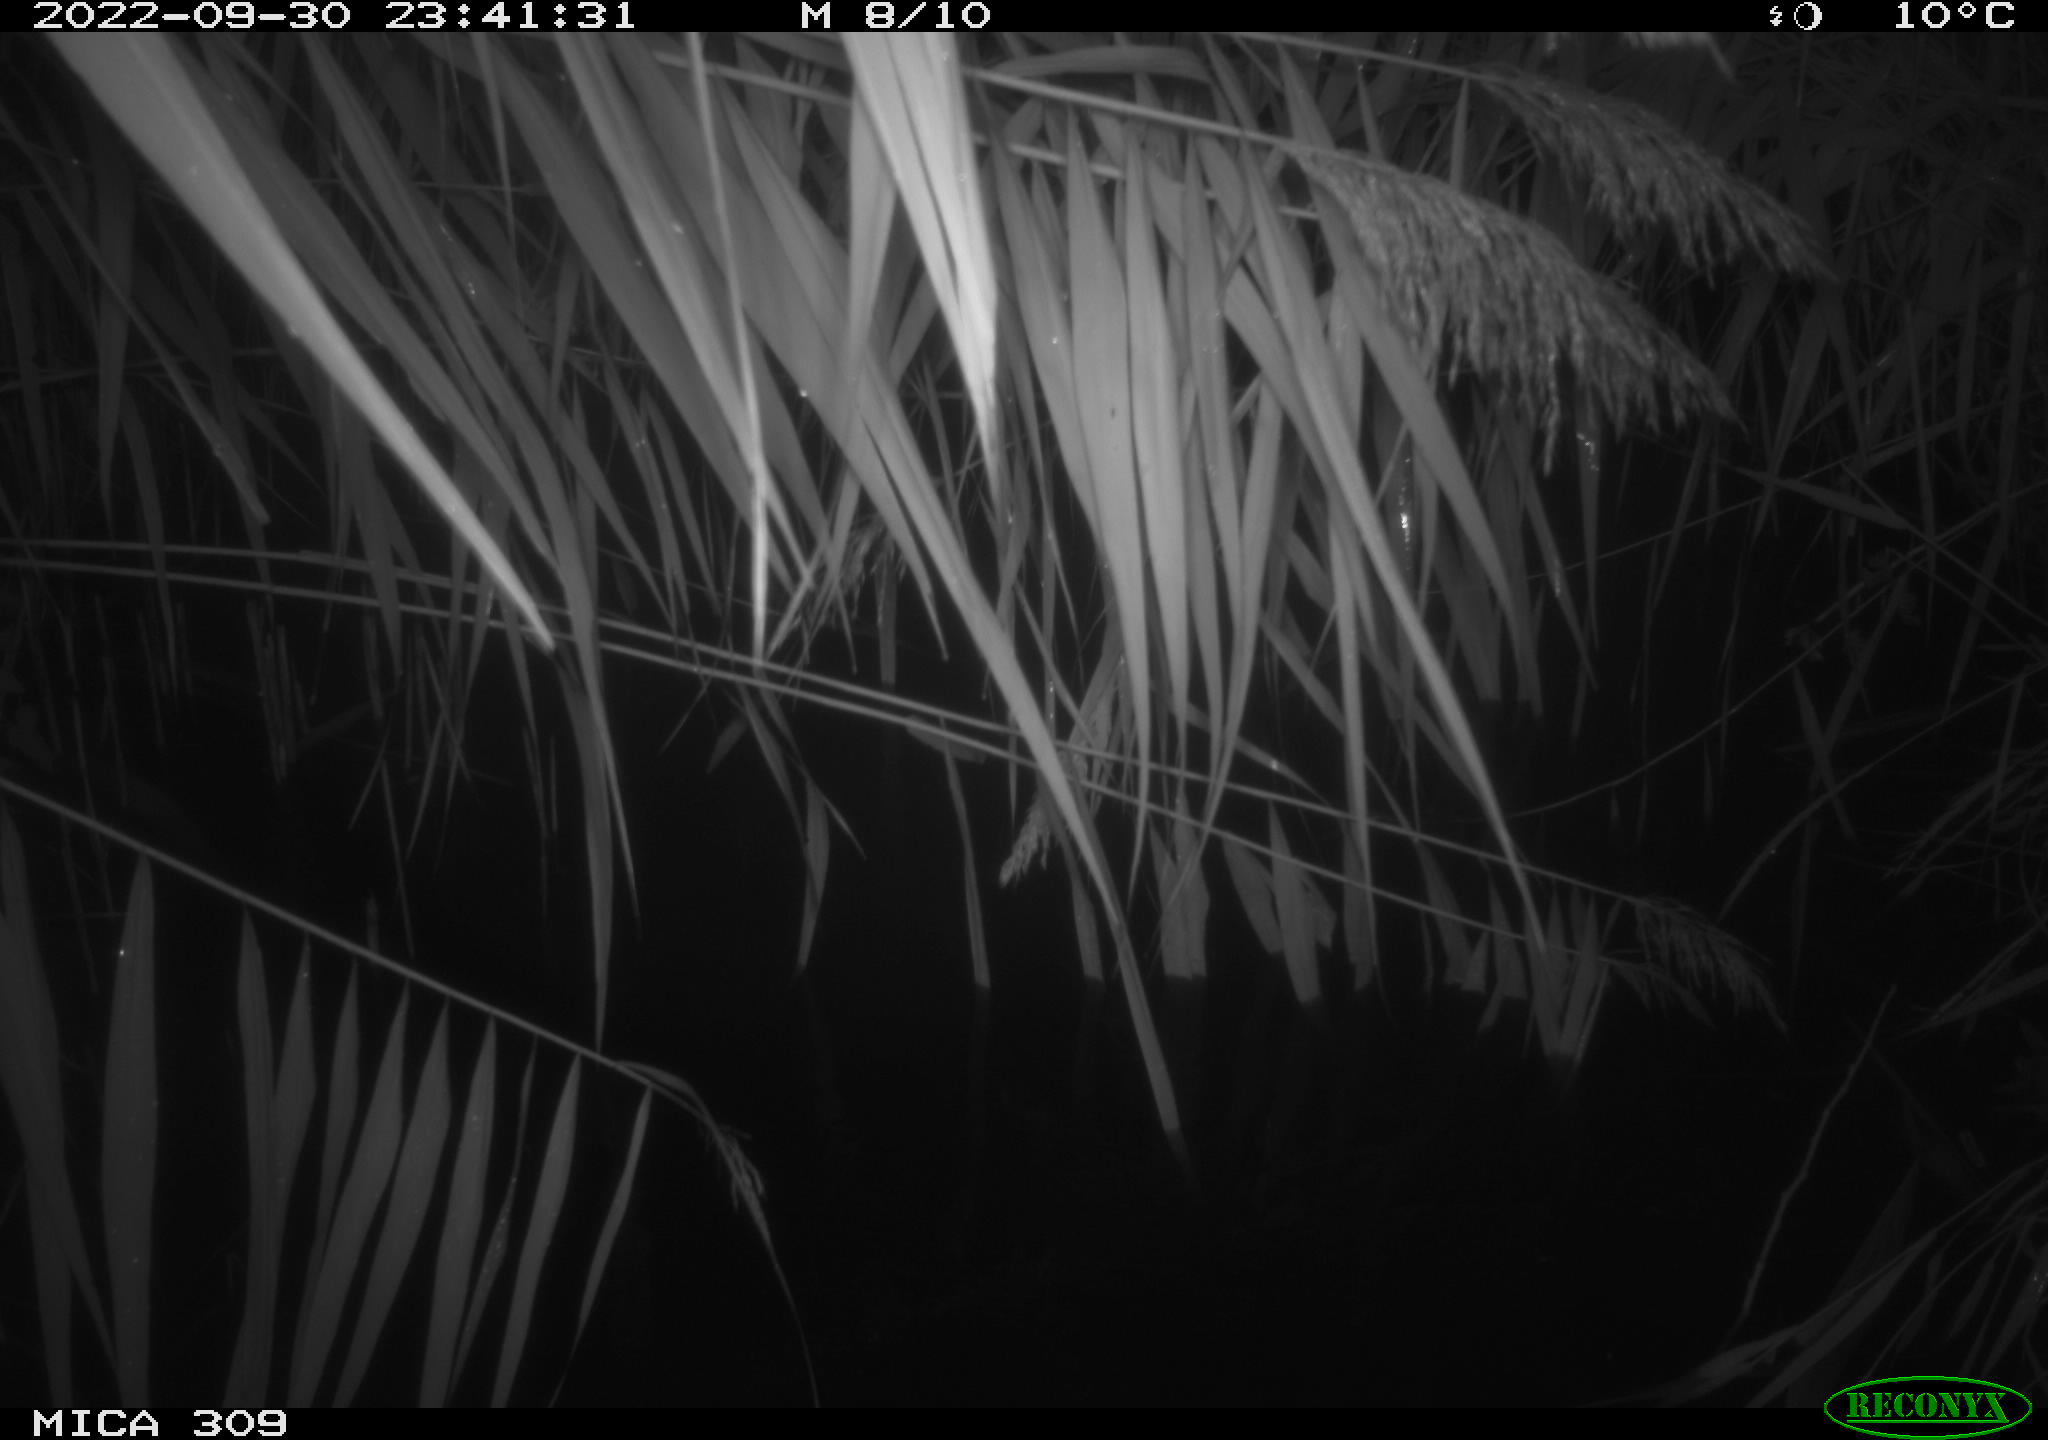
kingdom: Animalia
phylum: Chordata
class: Mammalia
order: Rodentia
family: Muridae
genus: Apodemus
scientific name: Apodemus sylvaticus
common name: Wood mouse
